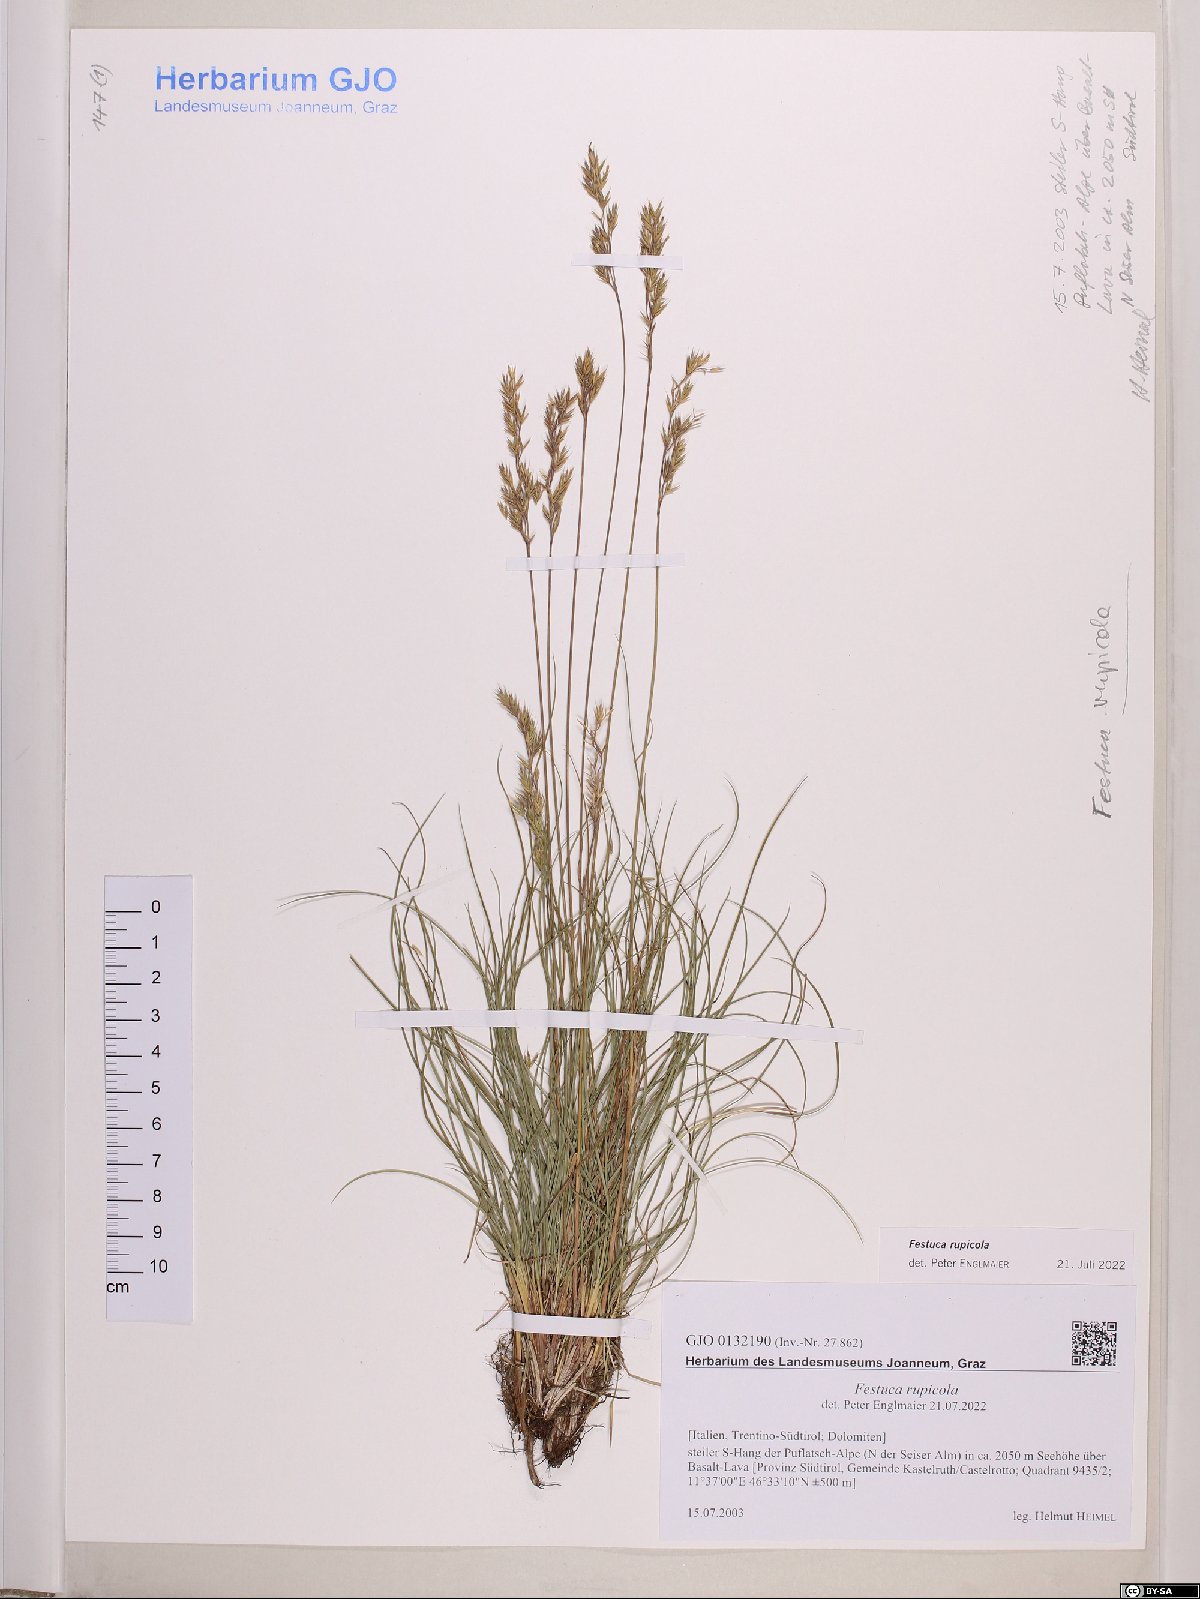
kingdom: Plantae
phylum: Tracheophyta
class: Liliopsida
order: Poales
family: Poaceae
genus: Festuca
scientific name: Festuca rupicola
